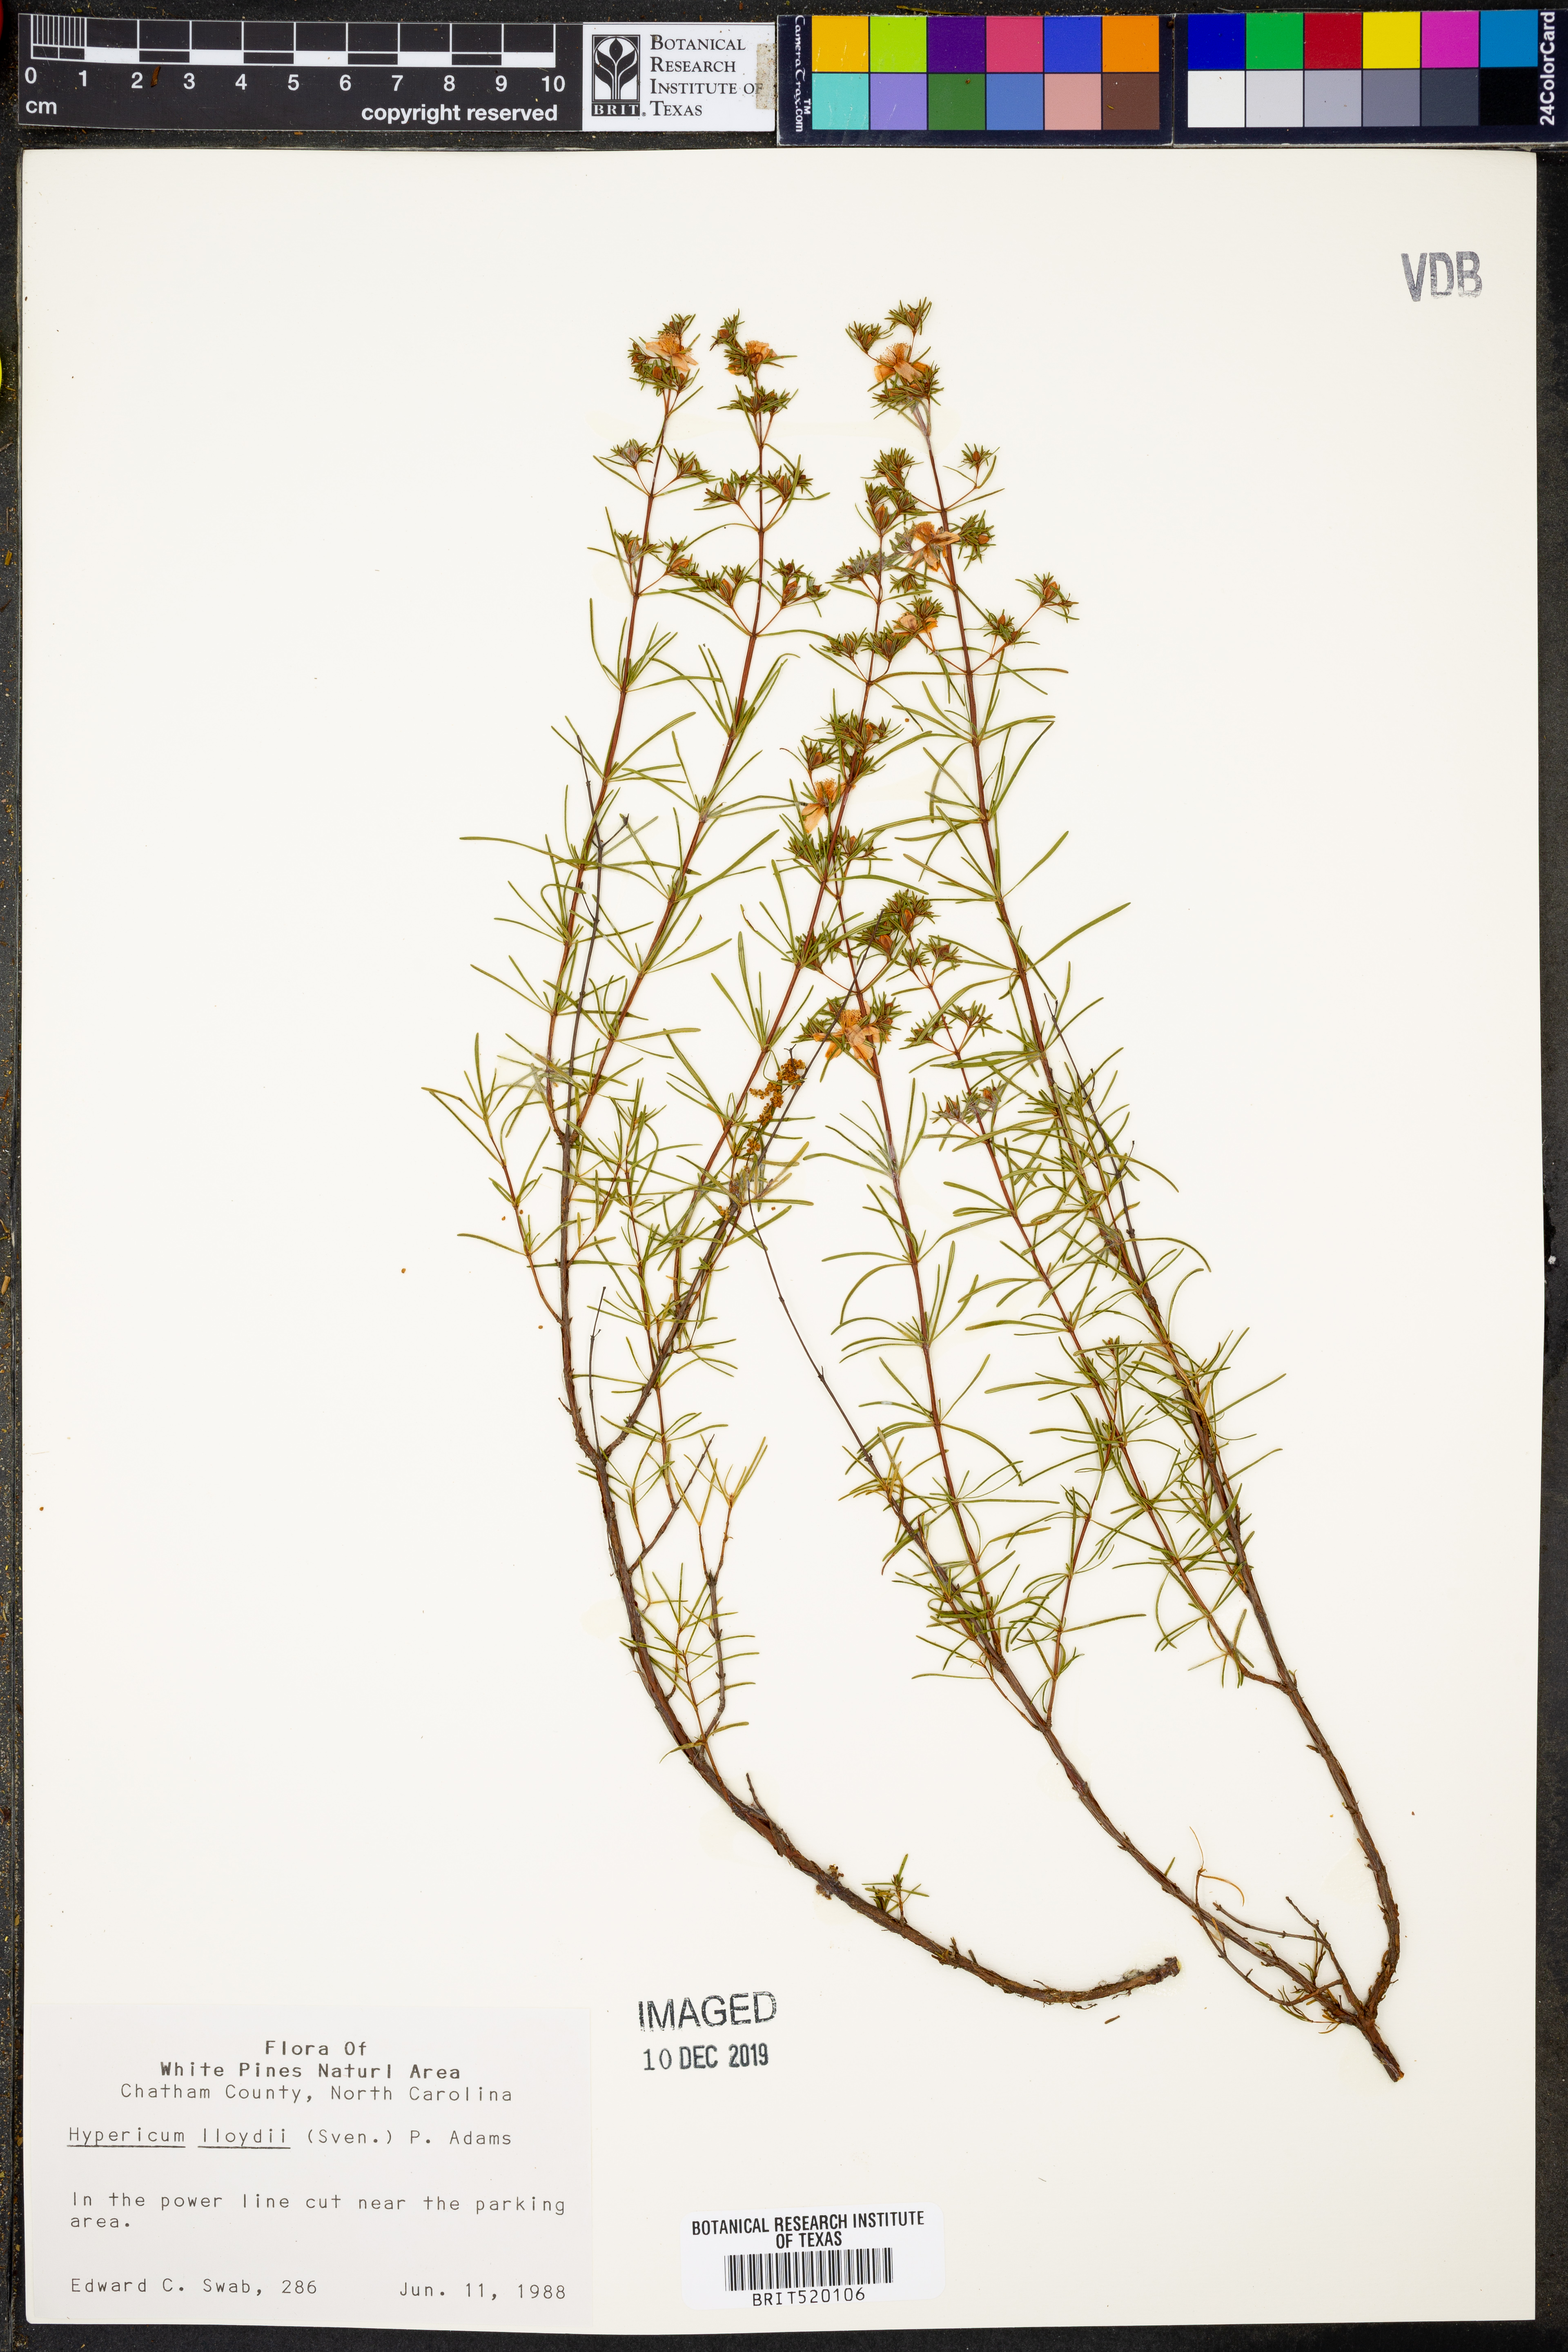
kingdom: Plantae
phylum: Tracheophyta
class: Magnoliopsida
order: Malpighiales
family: Hypericaceae
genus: Hypericum
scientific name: Hypericum lloydii
